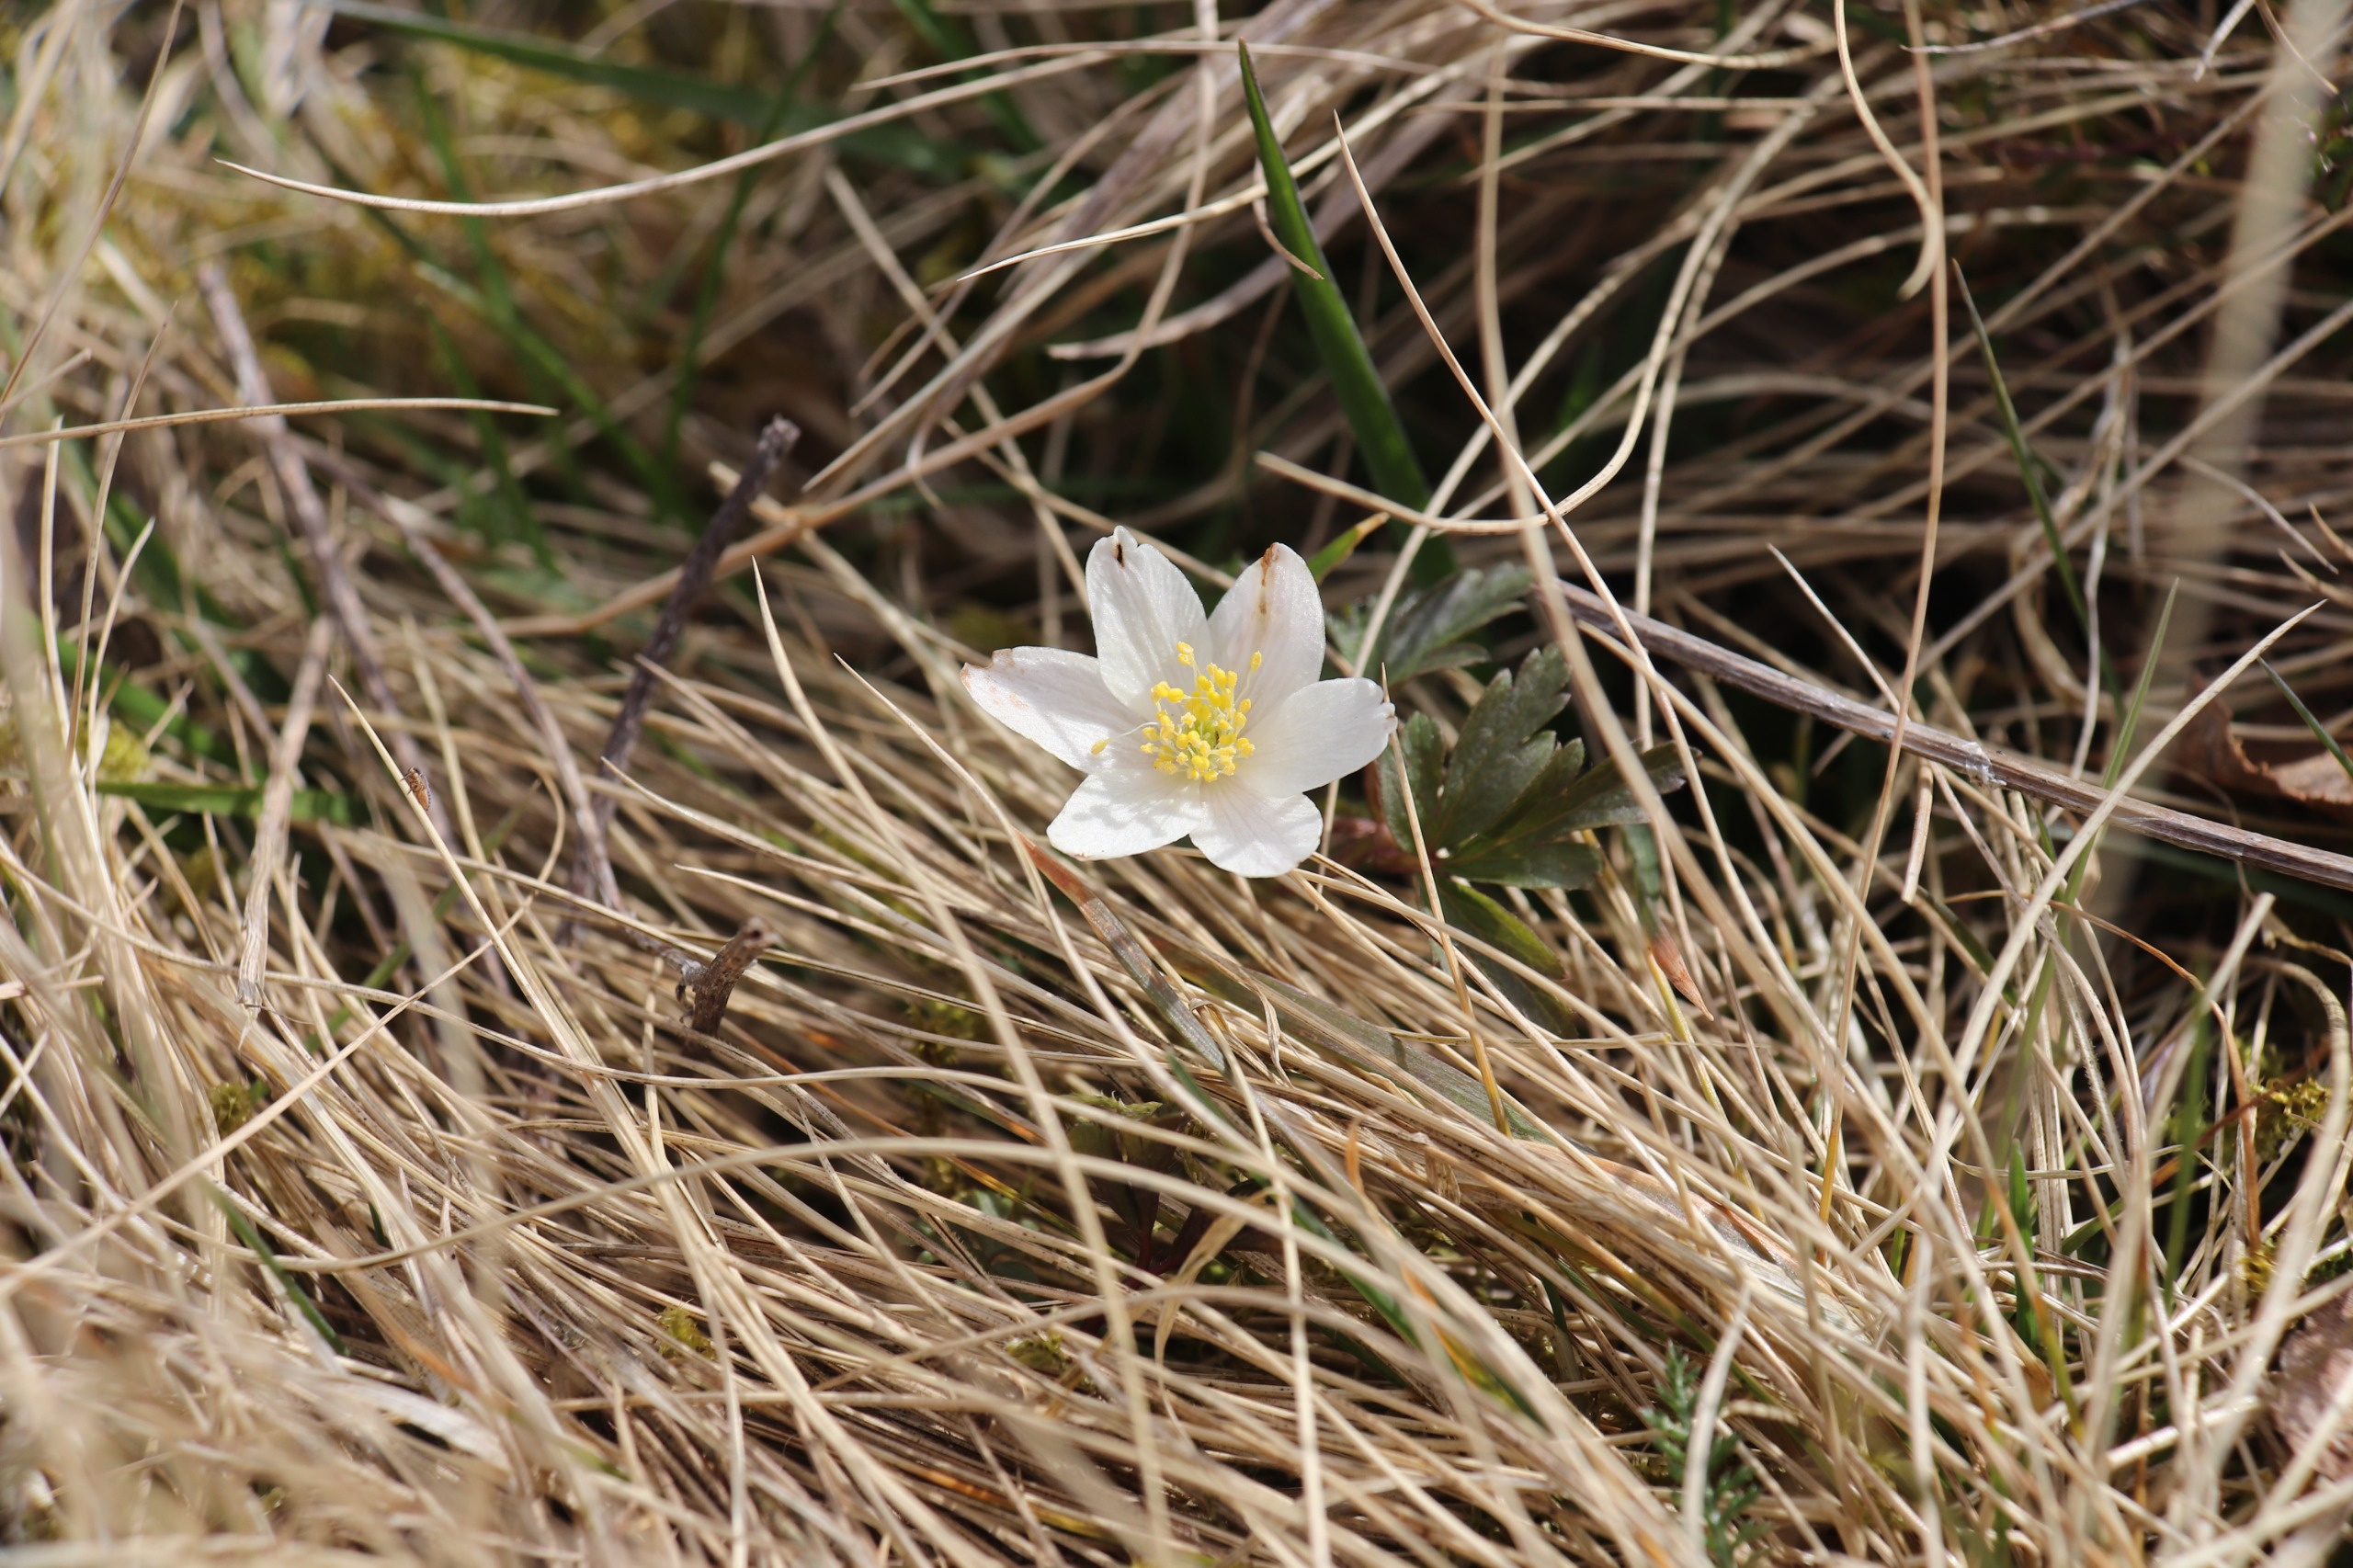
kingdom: Plantae
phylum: Tracheophyta
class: Magnoliopsida
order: Ranunculales
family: Ranunculaceae
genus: Anemone
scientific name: Anemone nemorosa
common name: Hvid anemone
